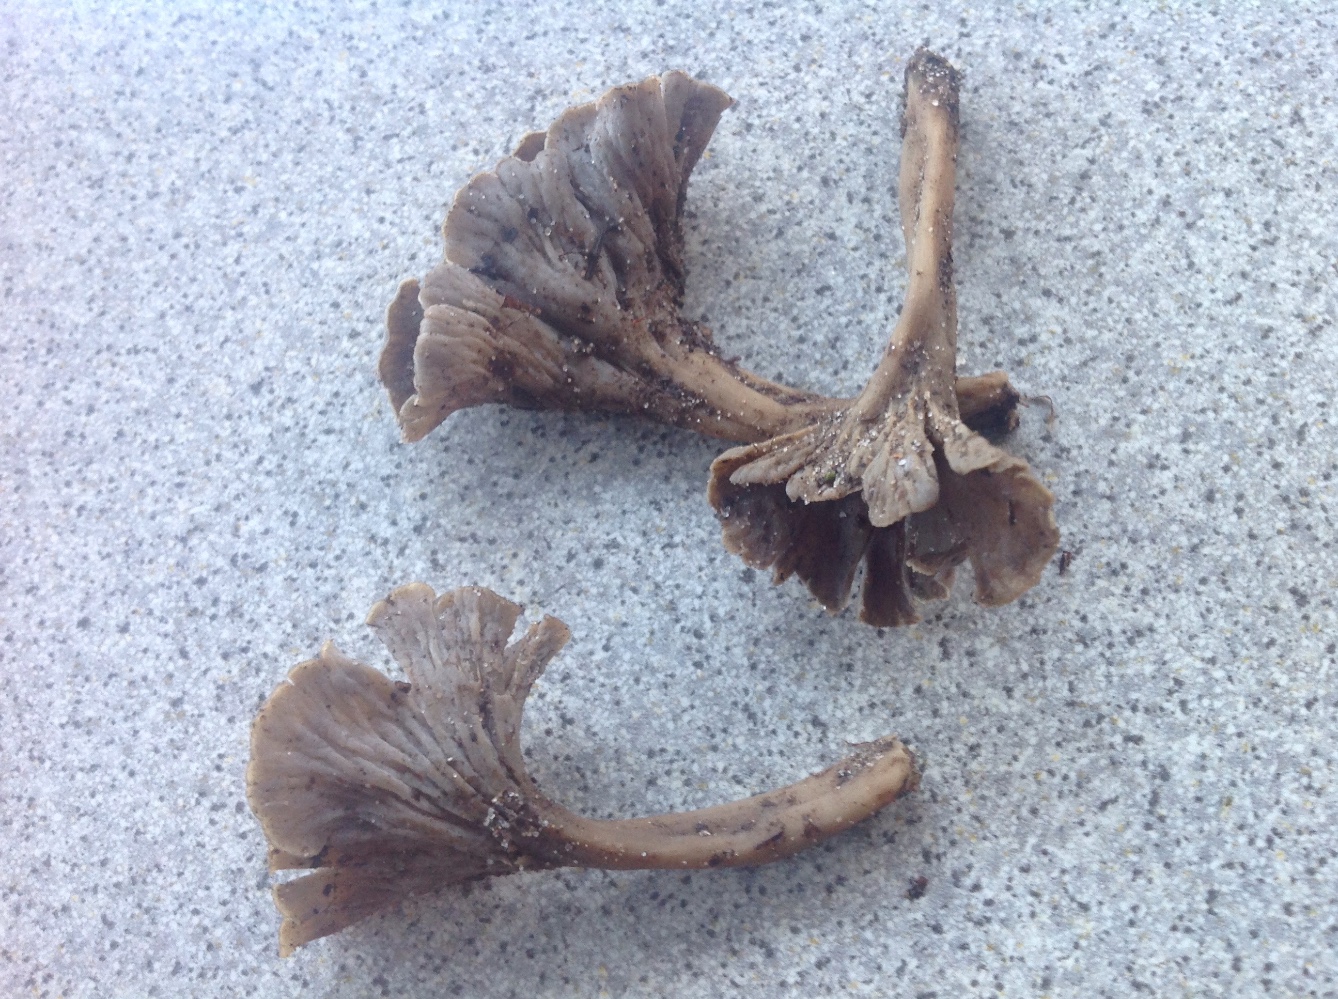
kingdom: Fungi
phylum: Basidiomycota
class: Agaricomycetes
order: Cantharellales
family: Hydnaceae
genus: Craterellus
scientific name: Craterellus undulatus
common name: liden kantarel
